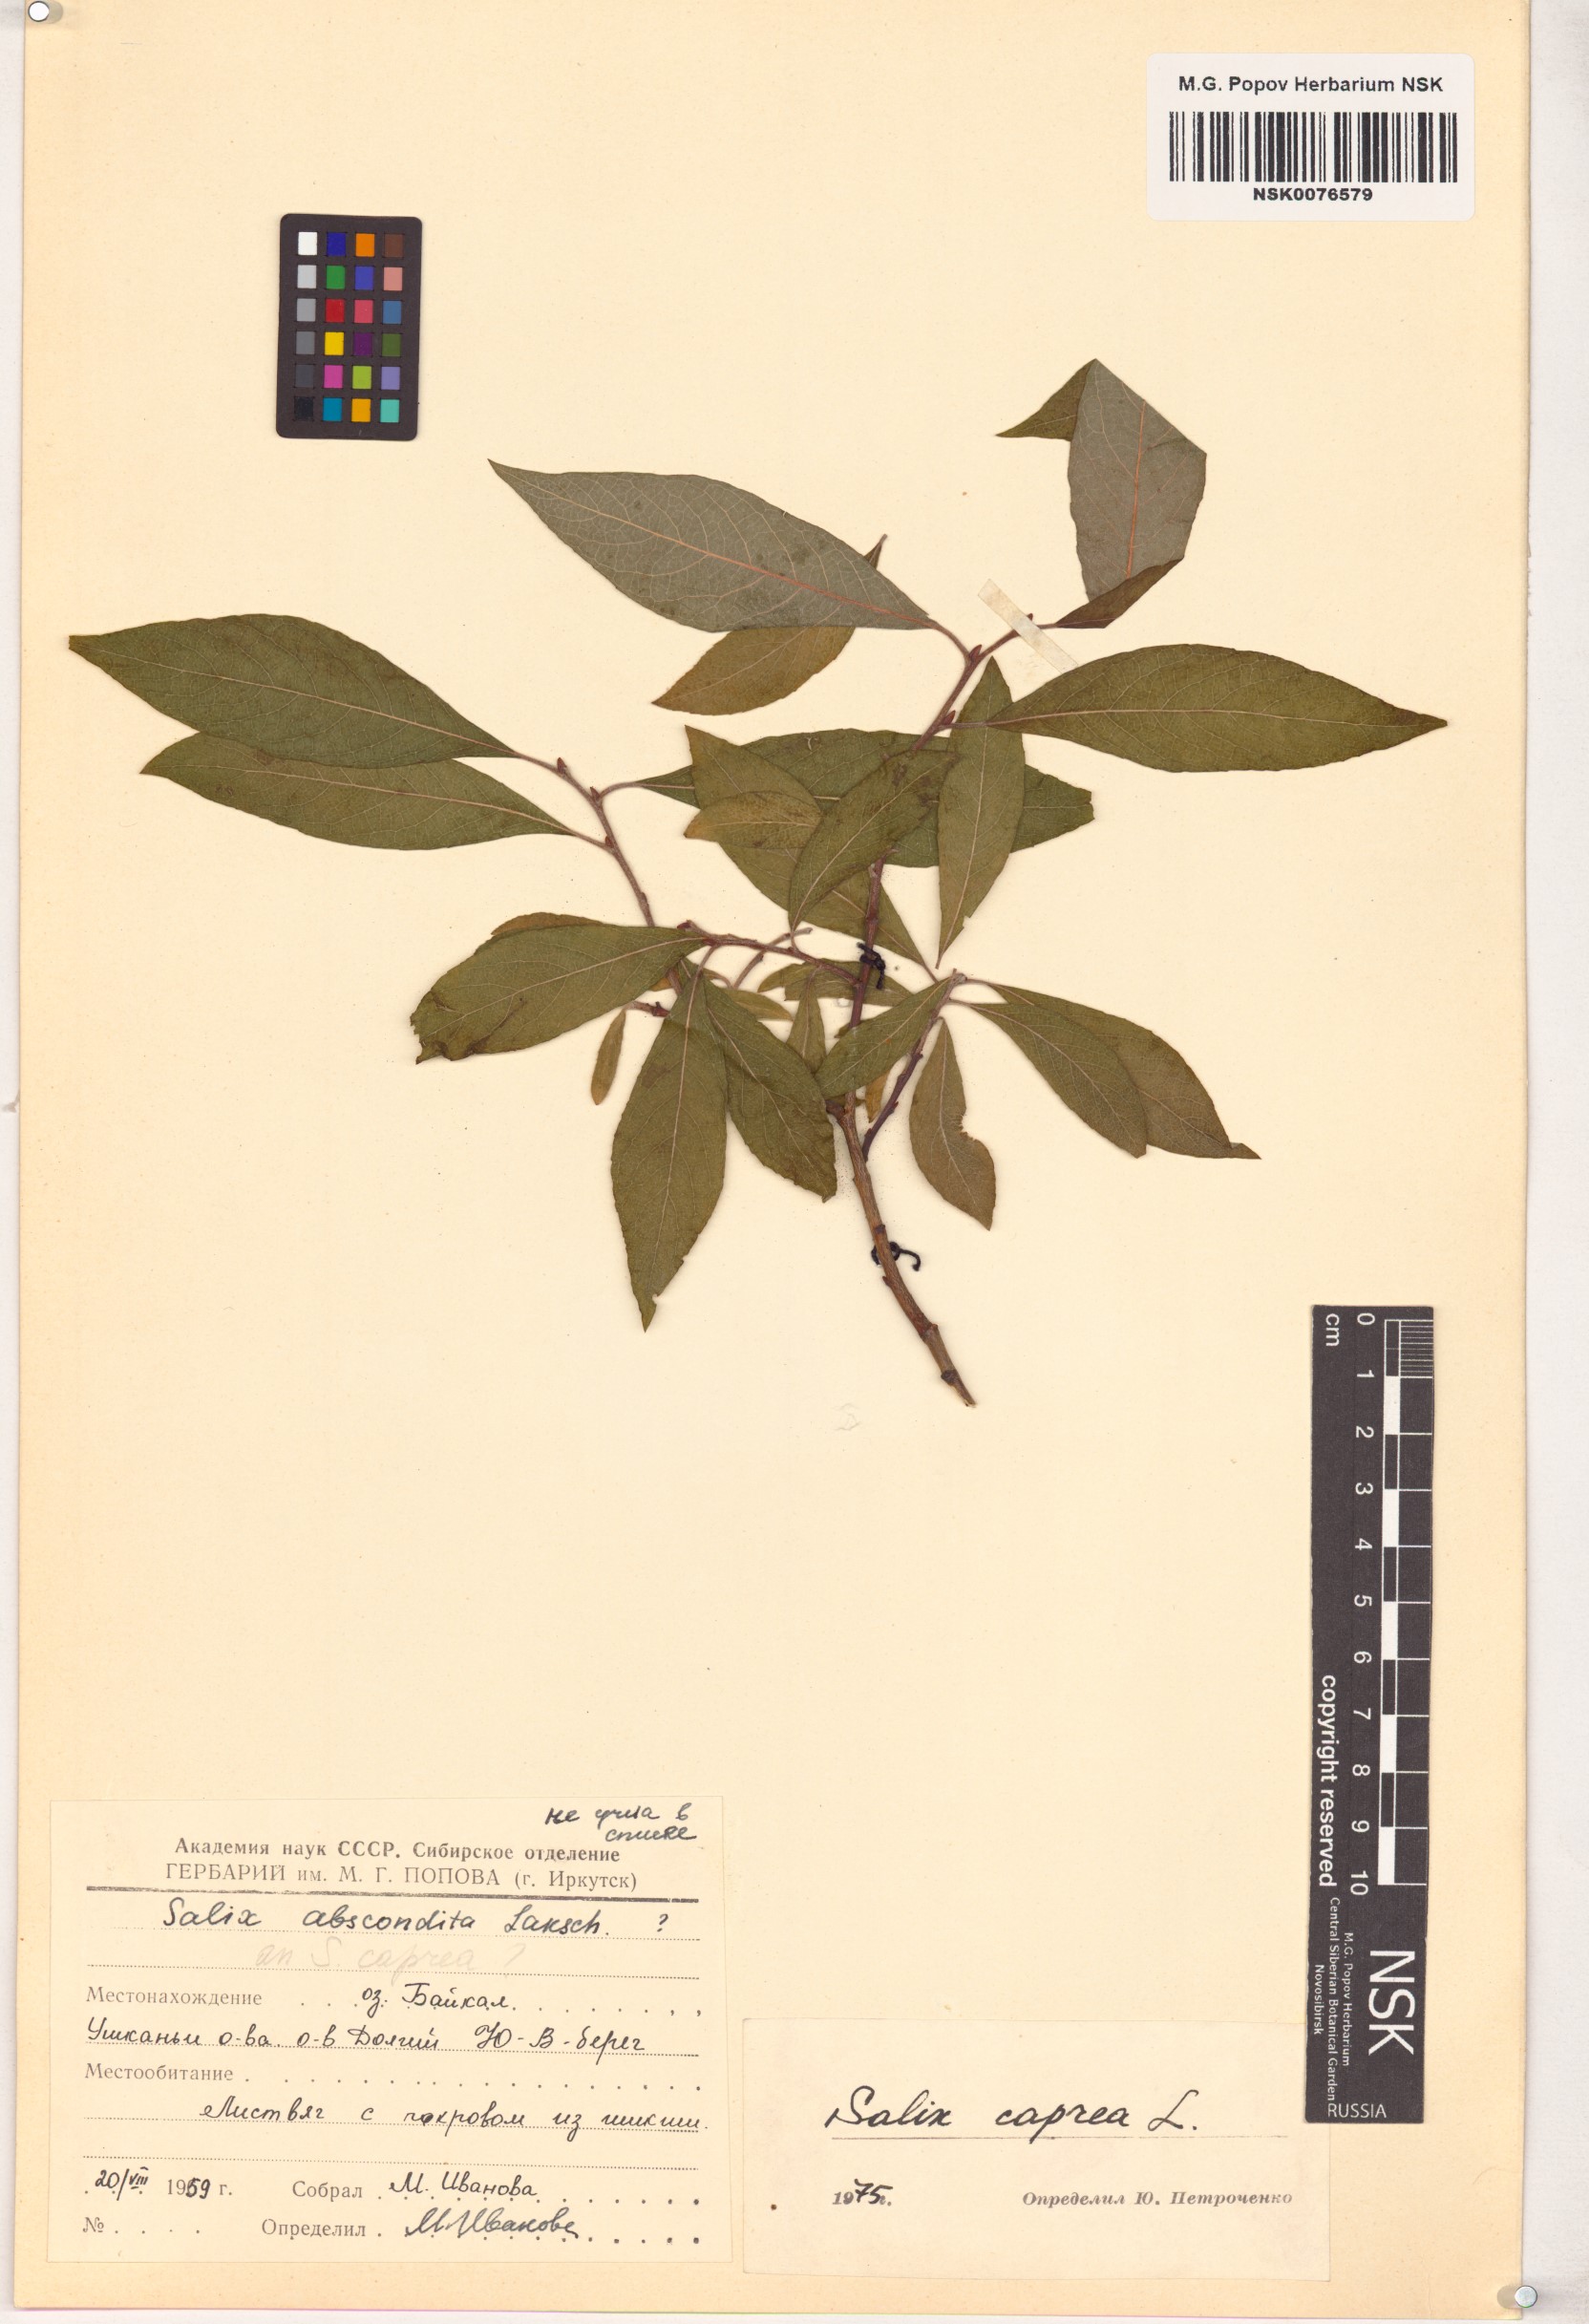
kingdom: Plantae
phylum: Tracheophyta
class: Magnoliopsida
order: Malpighiales
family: Salicaceae
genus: Salix
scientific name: Salix caprea
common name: Goat willow
